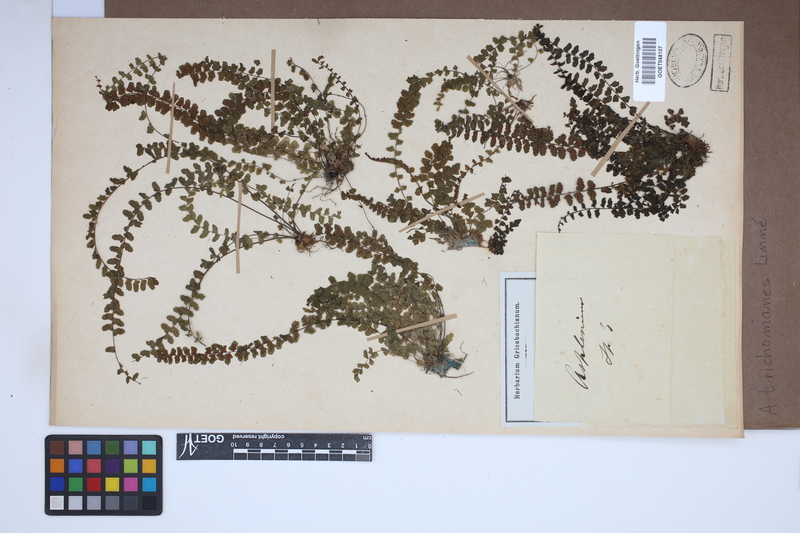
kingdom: Plantae
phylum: Tracheophyta
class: Polypodiopsida
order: Polypodiales
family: Aspleniaceae
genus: Asplenium
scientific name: Asplenium trichomanes
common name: Maidenhair spleenwort
